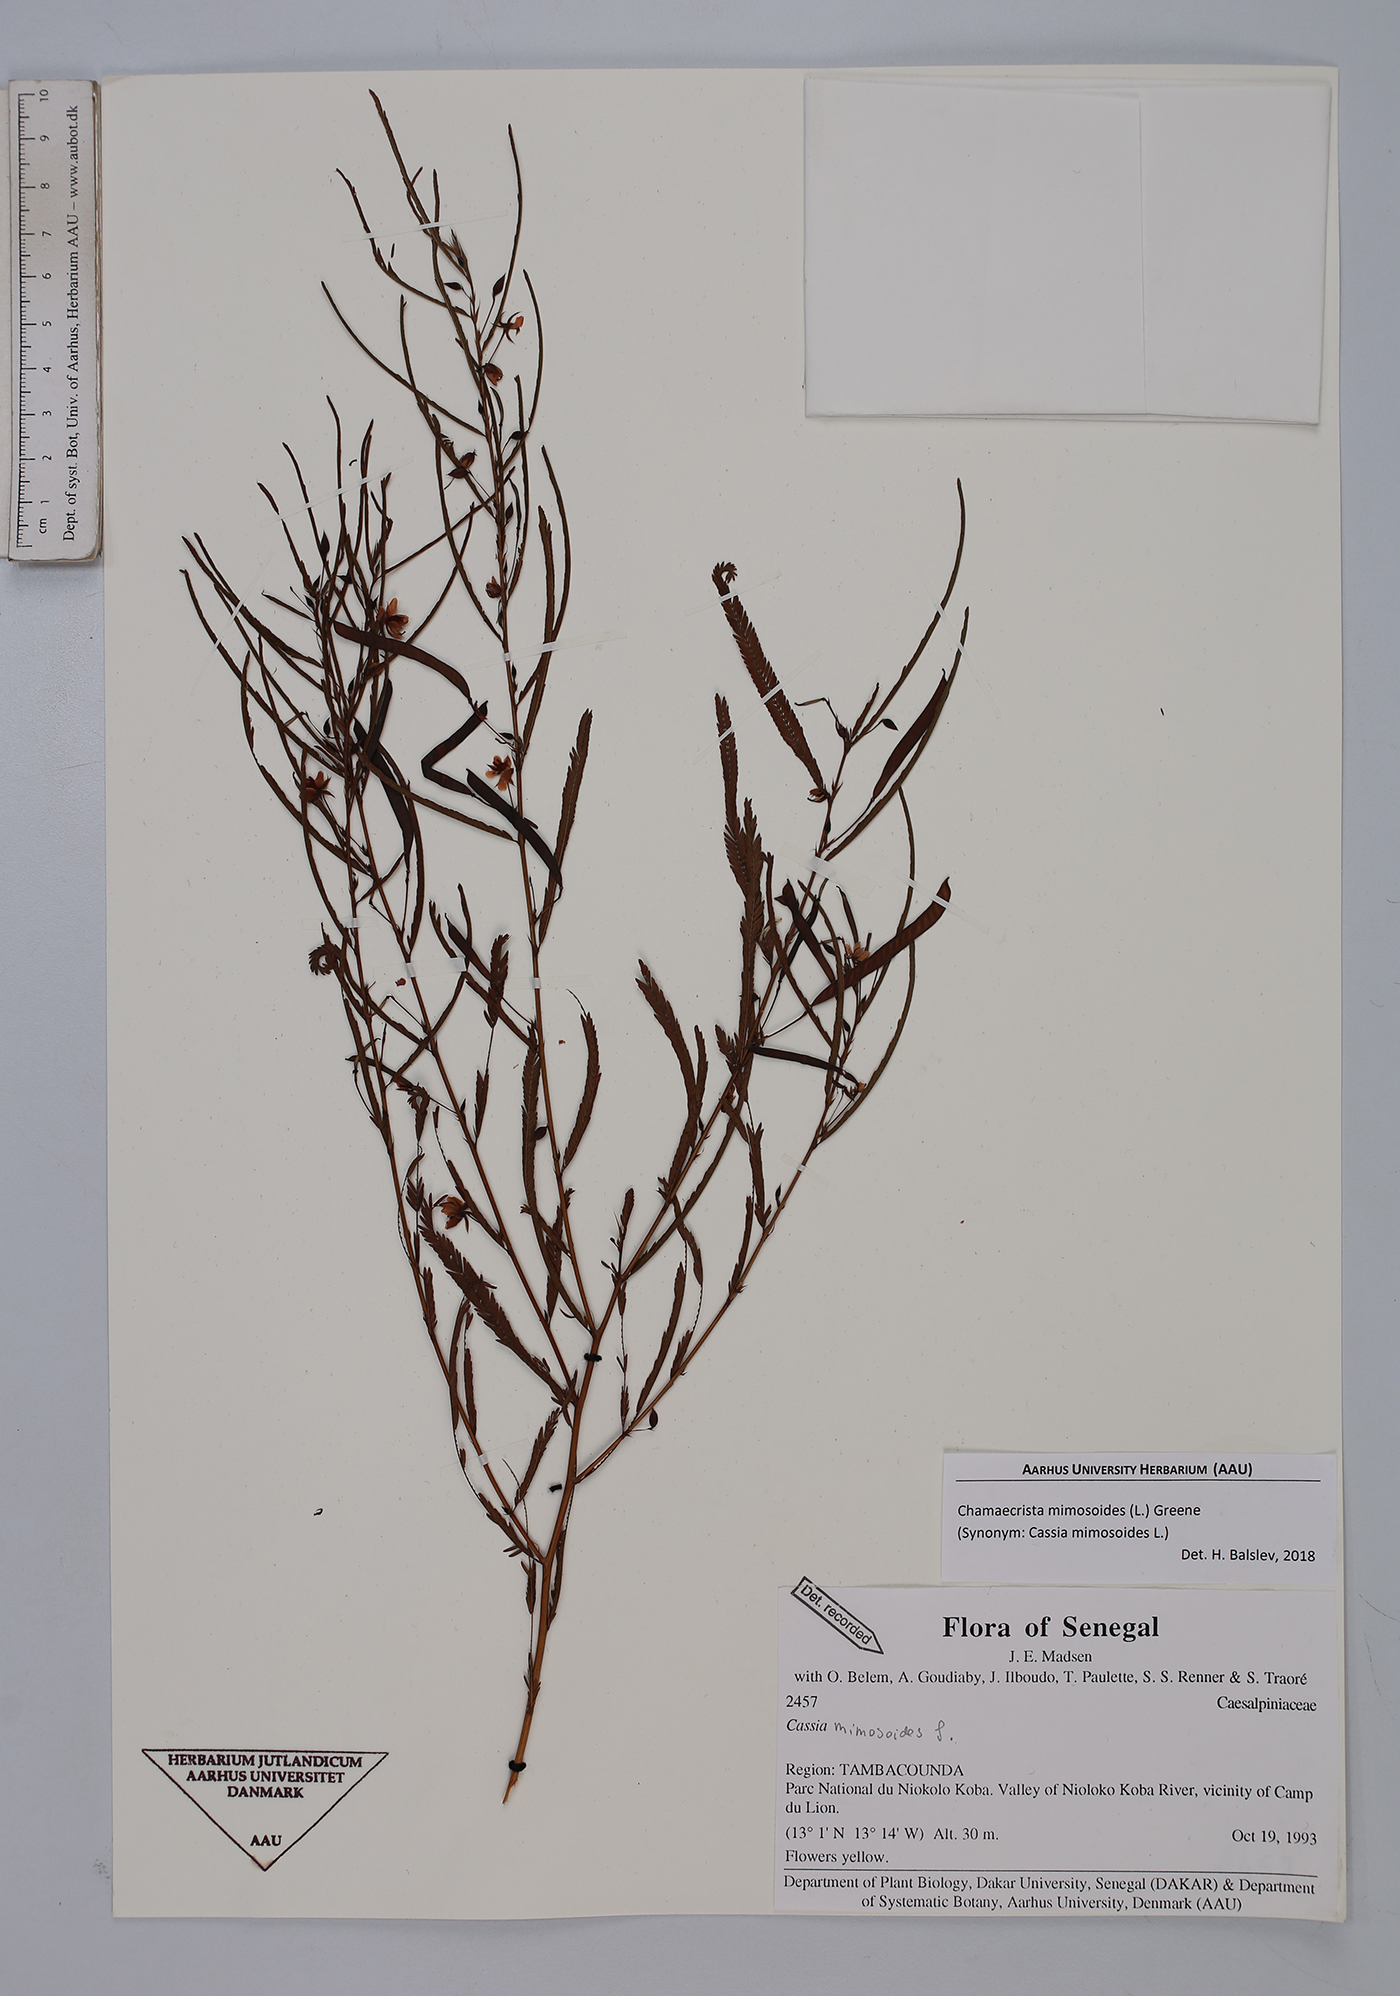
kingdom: Plantae
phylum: Tracheophyta
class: Magnoliopsida
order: Fabales
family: Fabaceae
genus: Chamaecrista
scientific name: Chamaecrista mimosoides
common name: Fish-bone cassia
